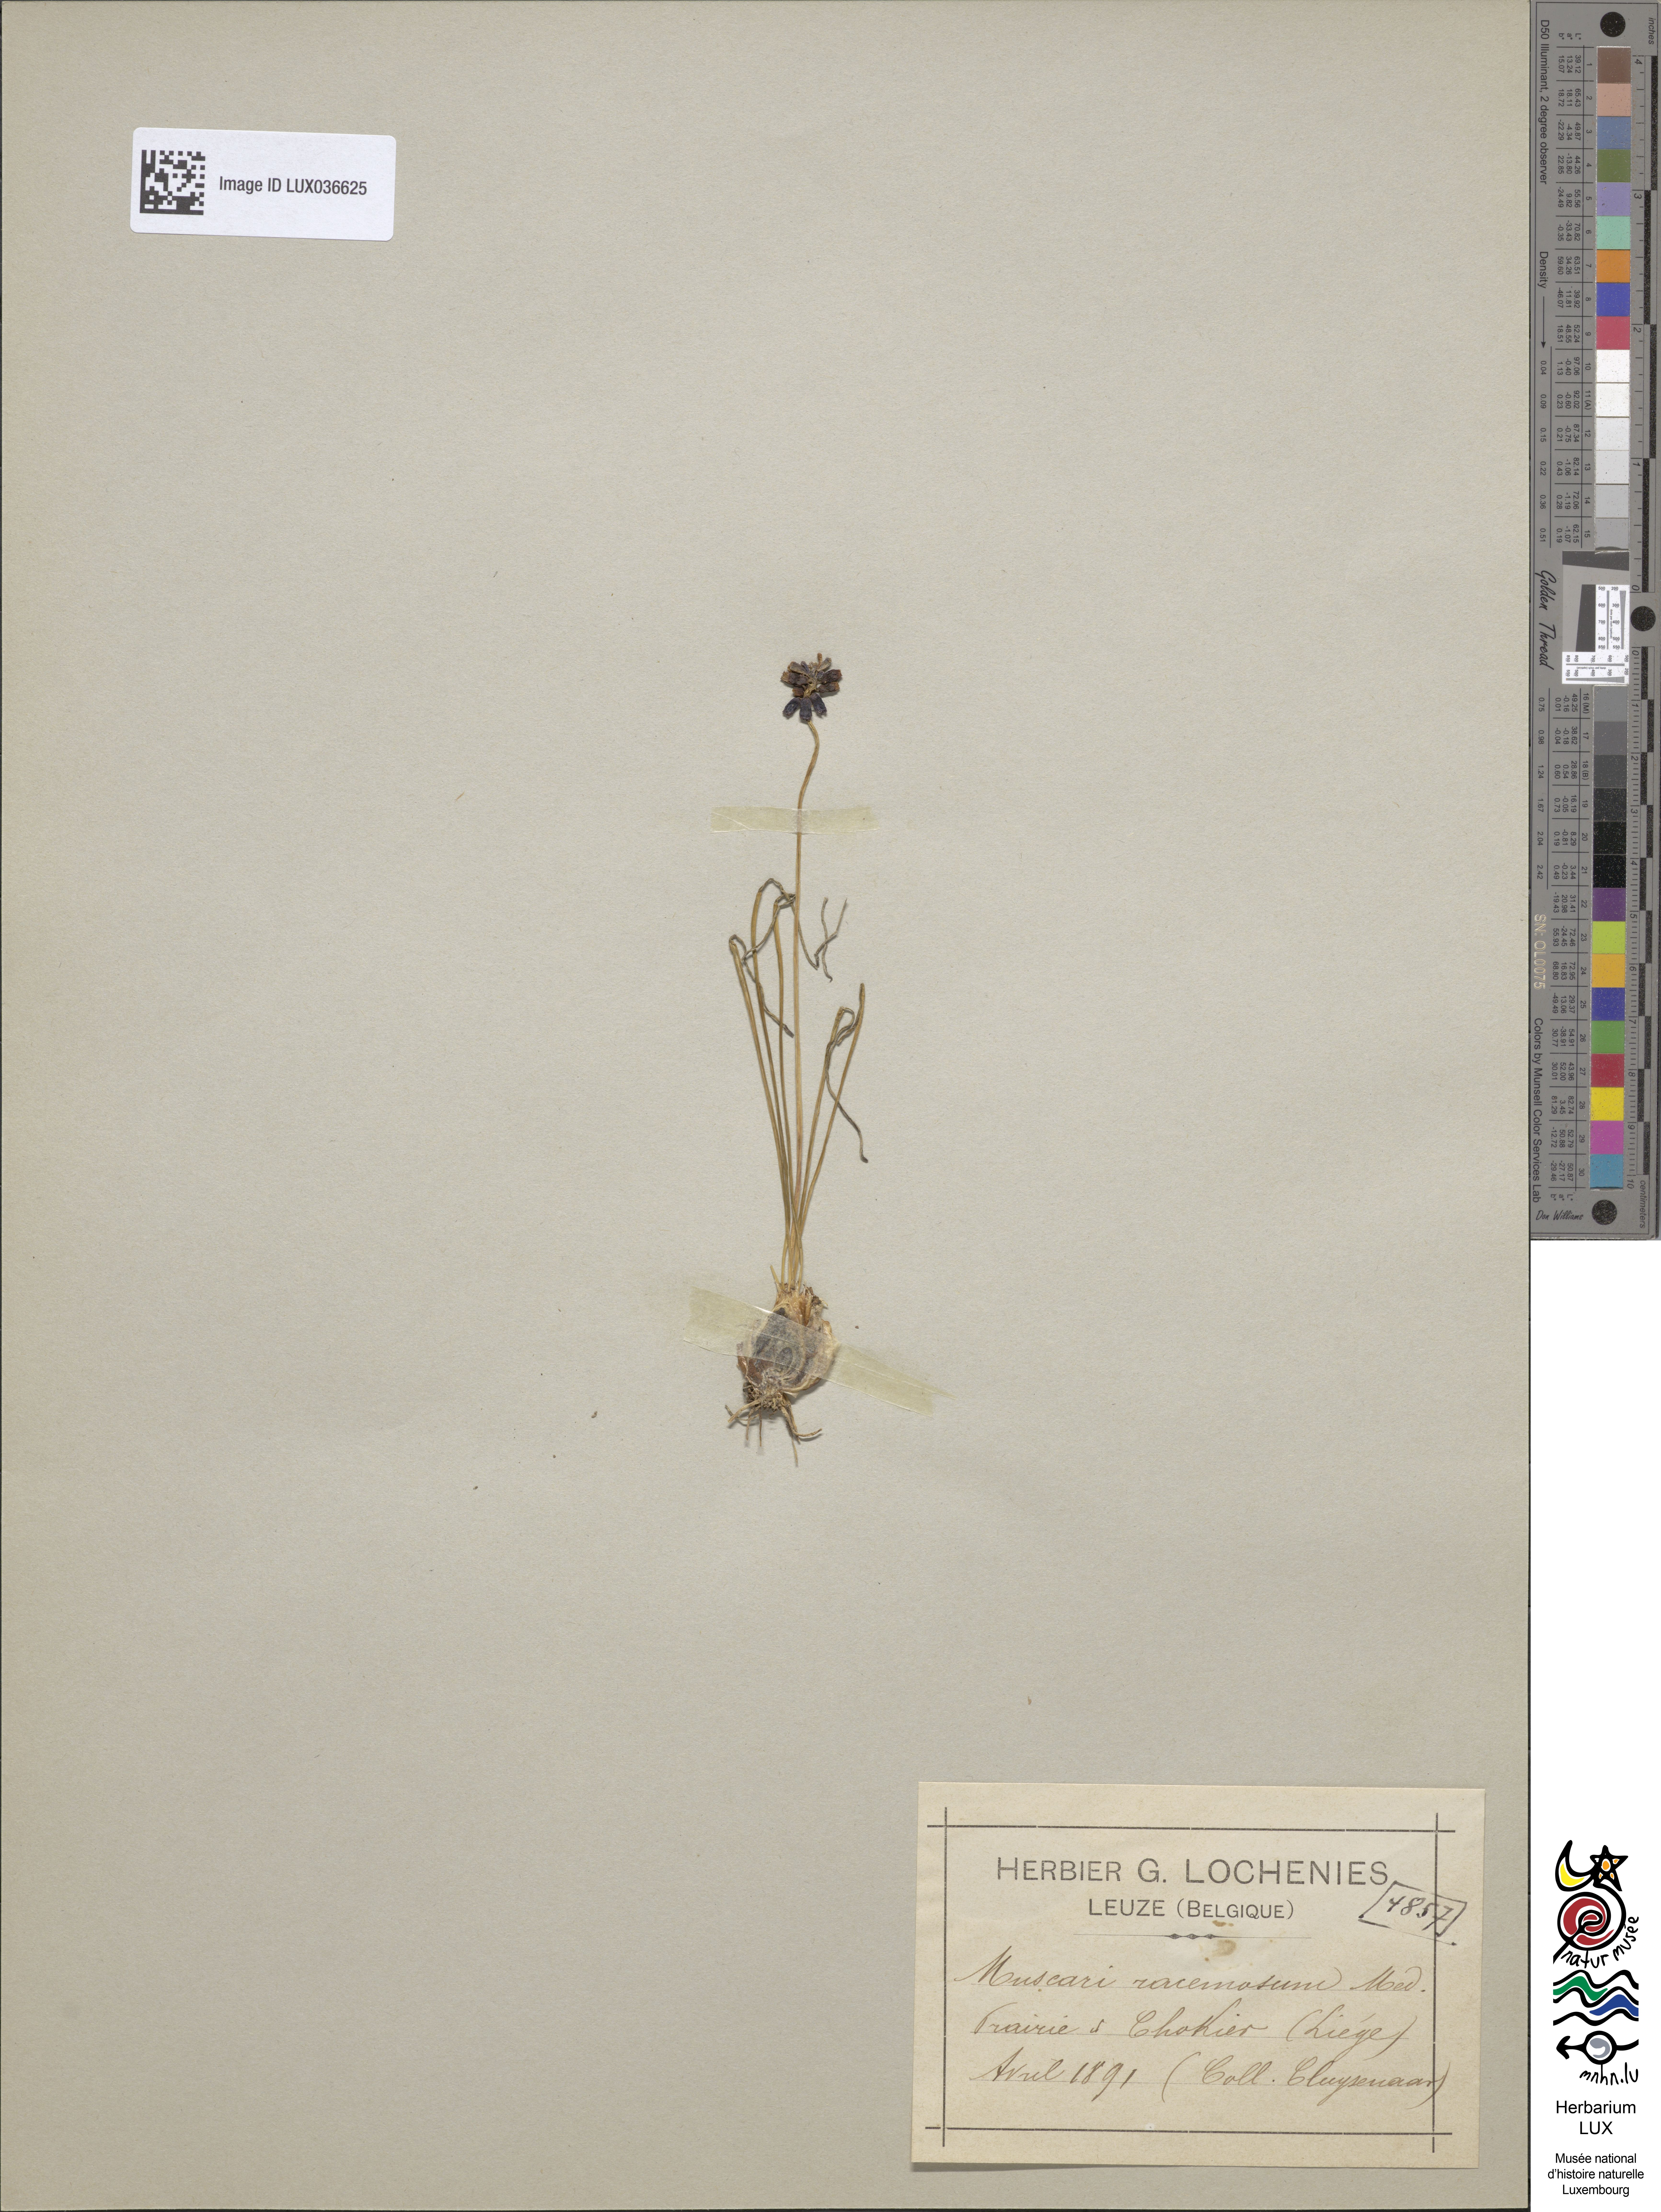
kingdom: Plantae
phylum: Tracheophyta
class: Liliopsida
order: Asparagales
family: Asparagaceae
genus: Muscari
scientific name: Muscari neglectum
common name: Grape-hyacinth
